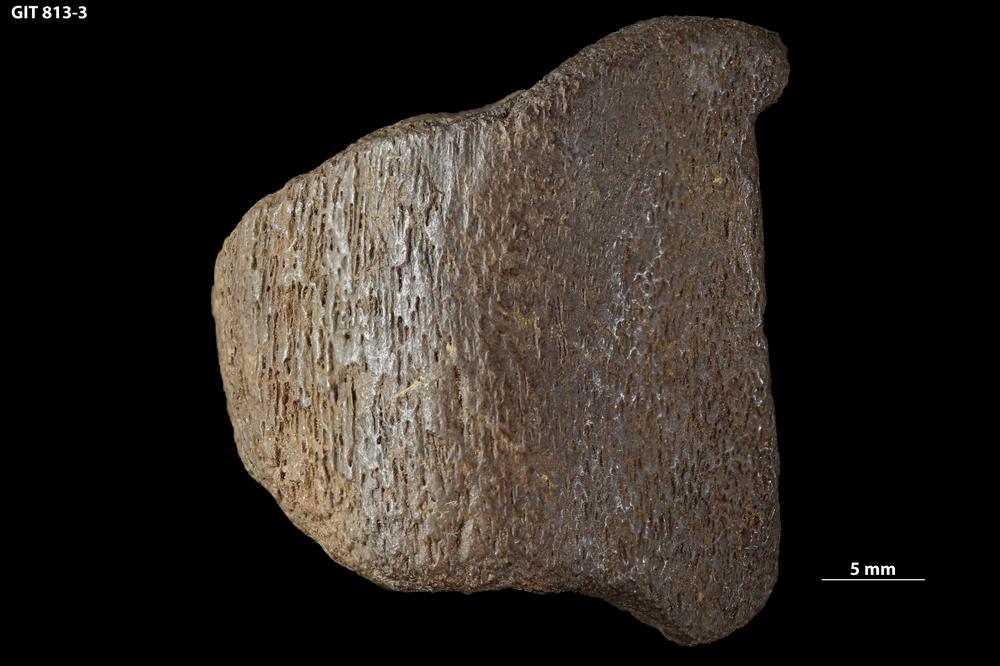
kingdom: Animalia
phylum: Chordata
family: Homostiidae
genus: Homostius
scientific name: Homostius
